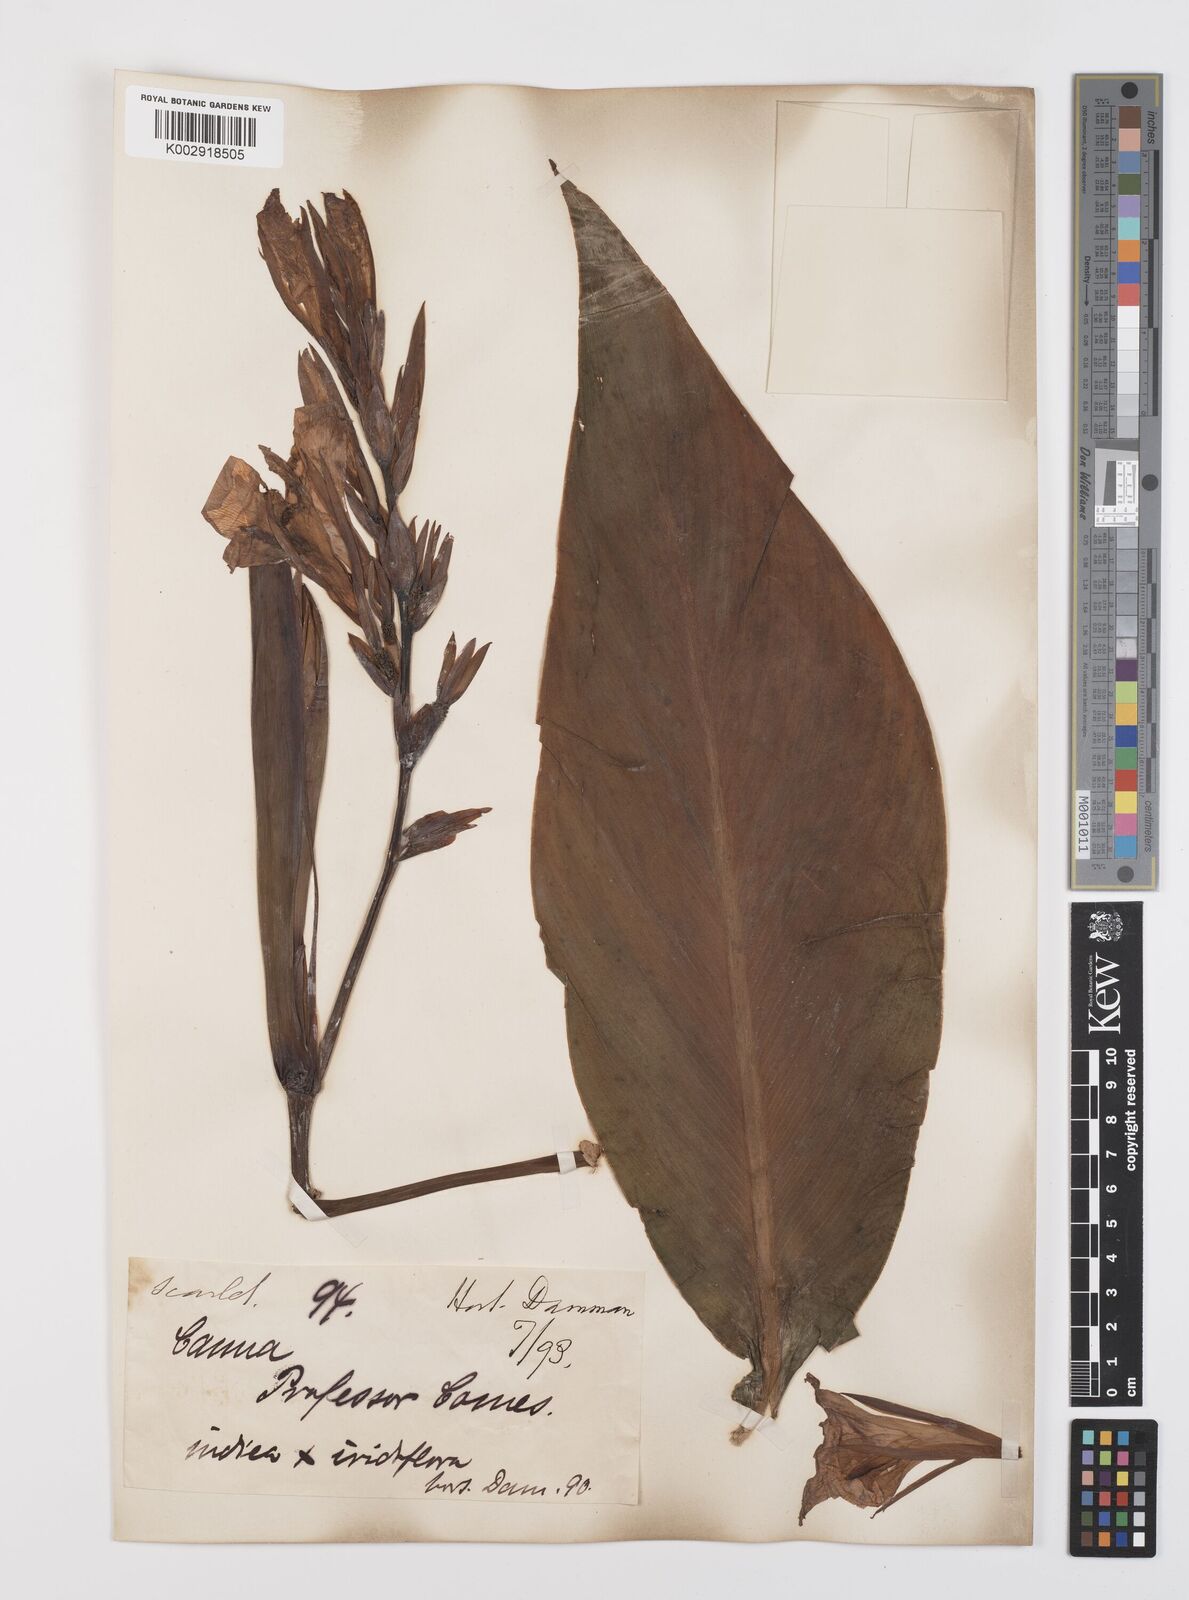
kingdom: Plantae
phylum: Tracheophyta
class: Liliopsida
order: Zingiberales
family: Cannaceae
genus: Canna
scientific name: Canna indica
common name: Indian shot
